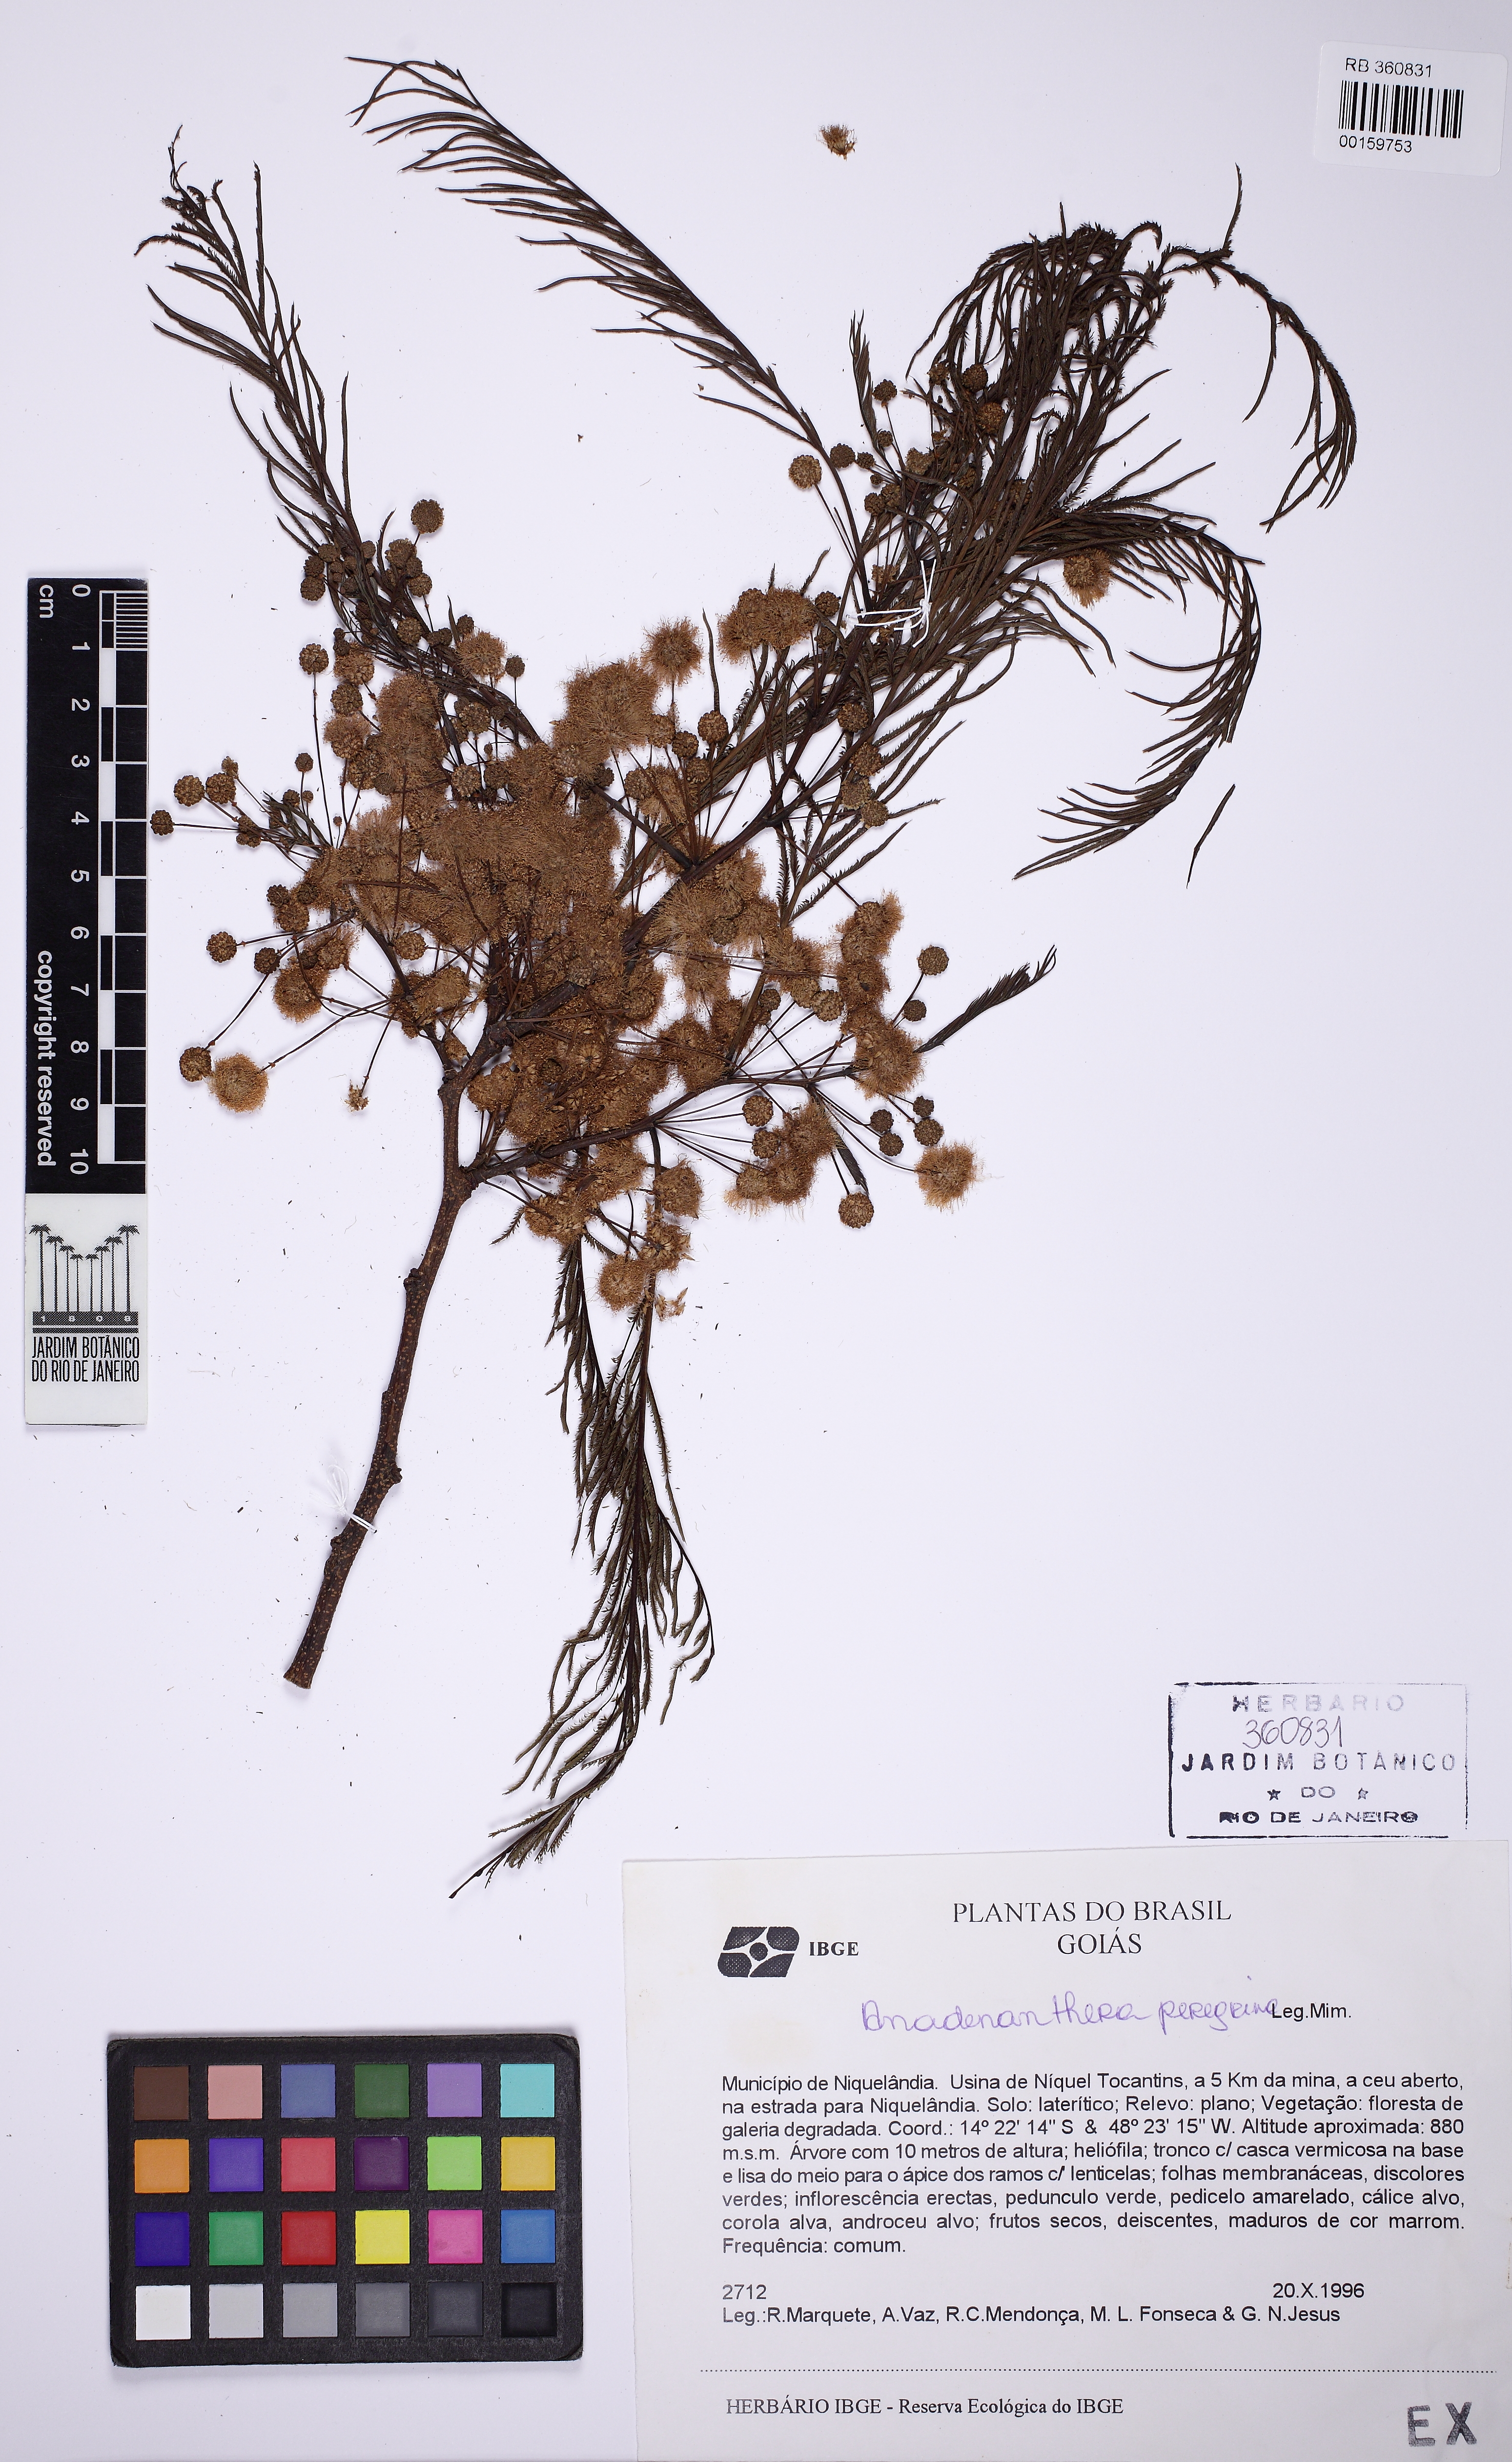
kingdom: Plantae
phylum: Tracheophyta
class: Magnoliopsida
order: Fabales
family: Fabaceae
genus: Anadenanthera
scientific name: Anadenanthera peregrina
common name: Cohoba
